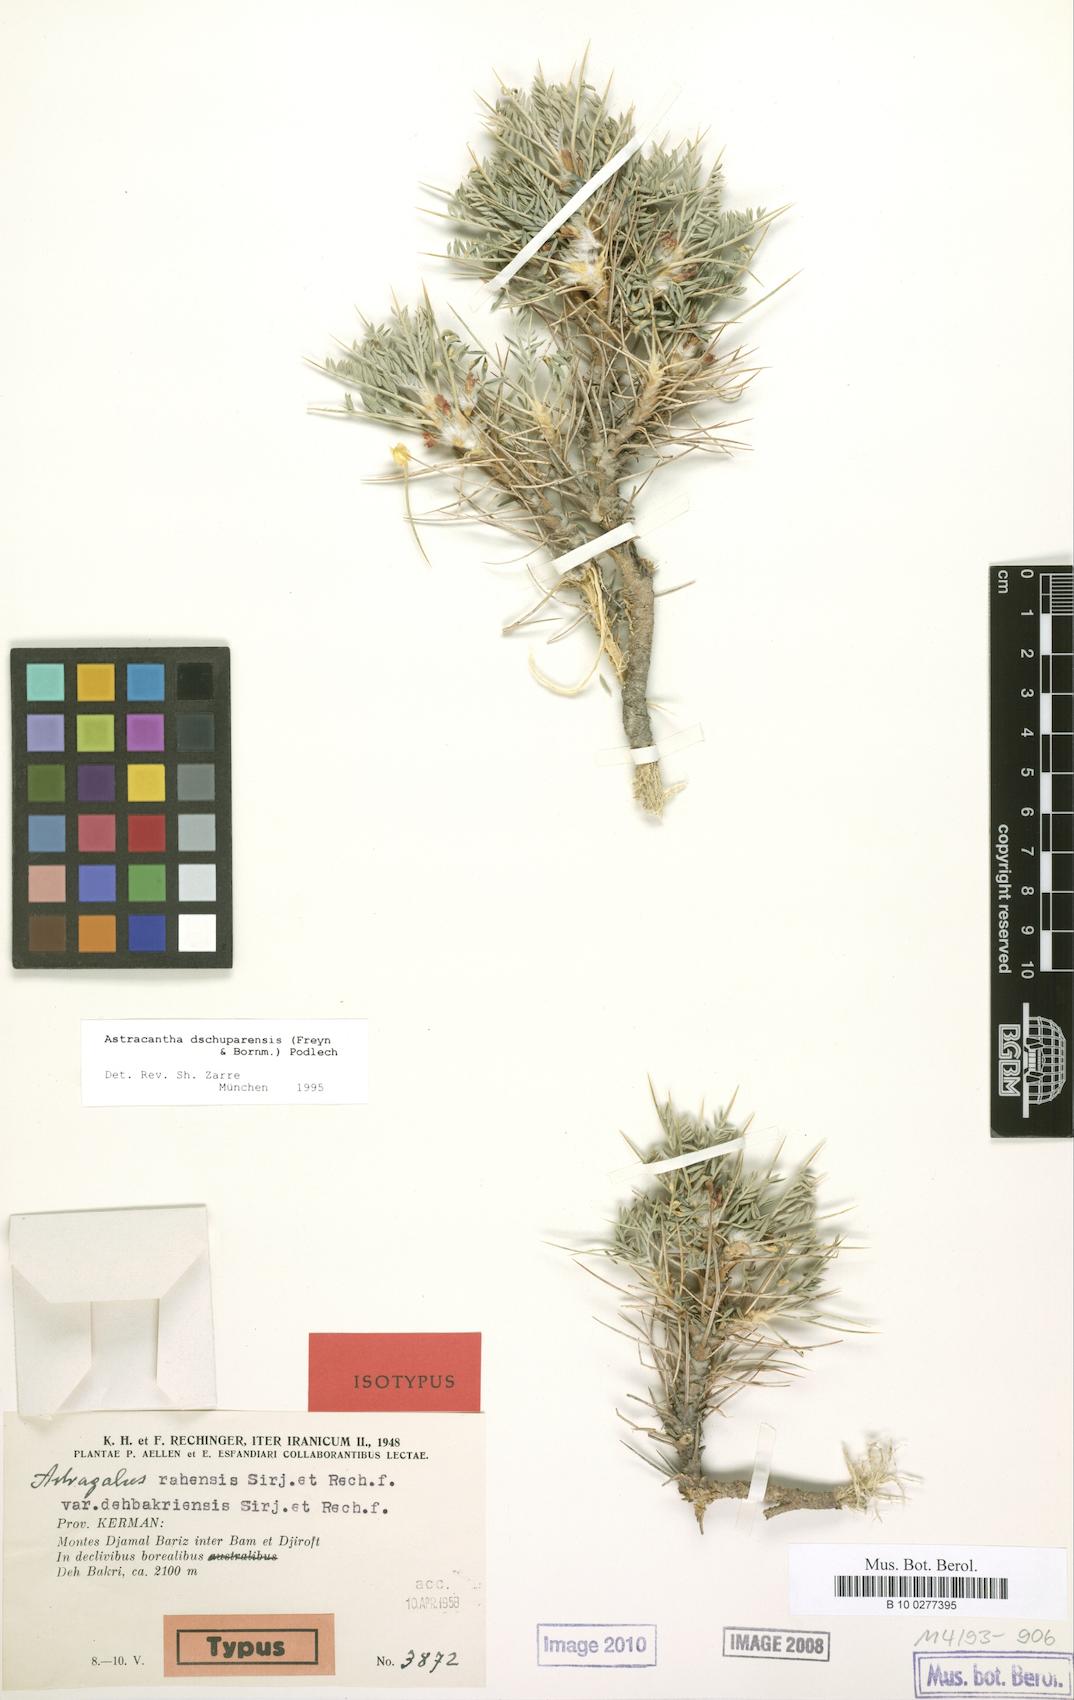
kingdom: Plantae
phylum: Tracheophyta
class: Magnoliopsida
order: Fabales
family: Fabaceae
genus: Astragalus
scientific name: Astragalus dschuparensis
